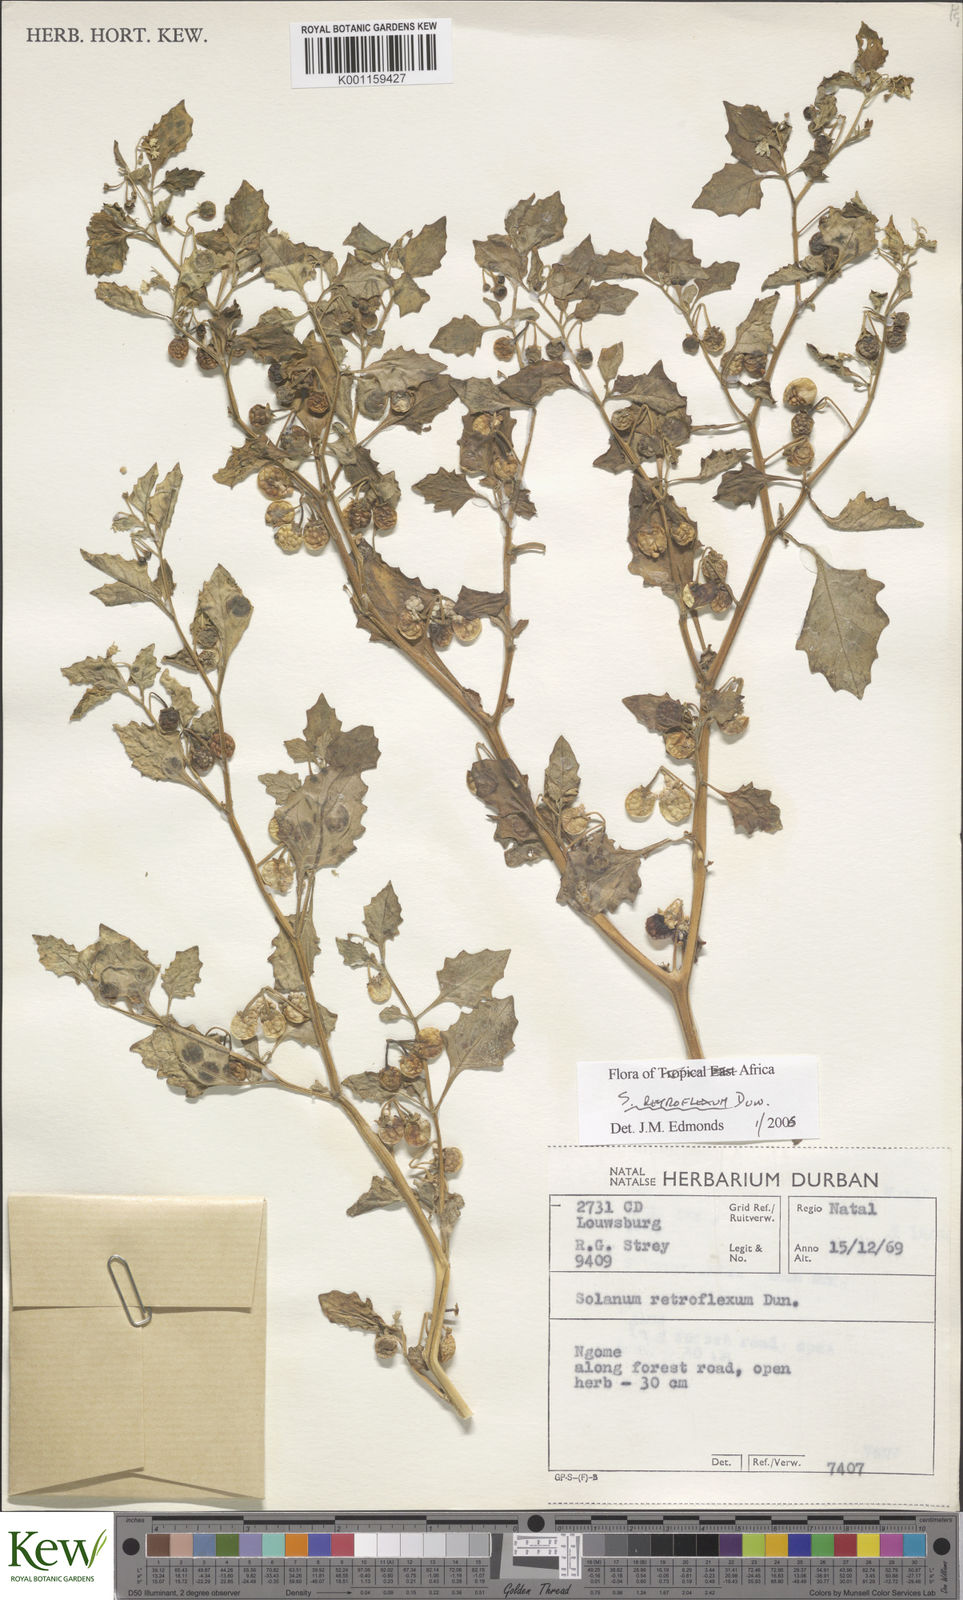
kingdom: Plantae
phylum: Tracheophyta
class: Magnoliopsida
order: Solanales
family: Solanaceae
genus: Solanum
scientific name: Solanum retroflexum
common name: Wonderberry
